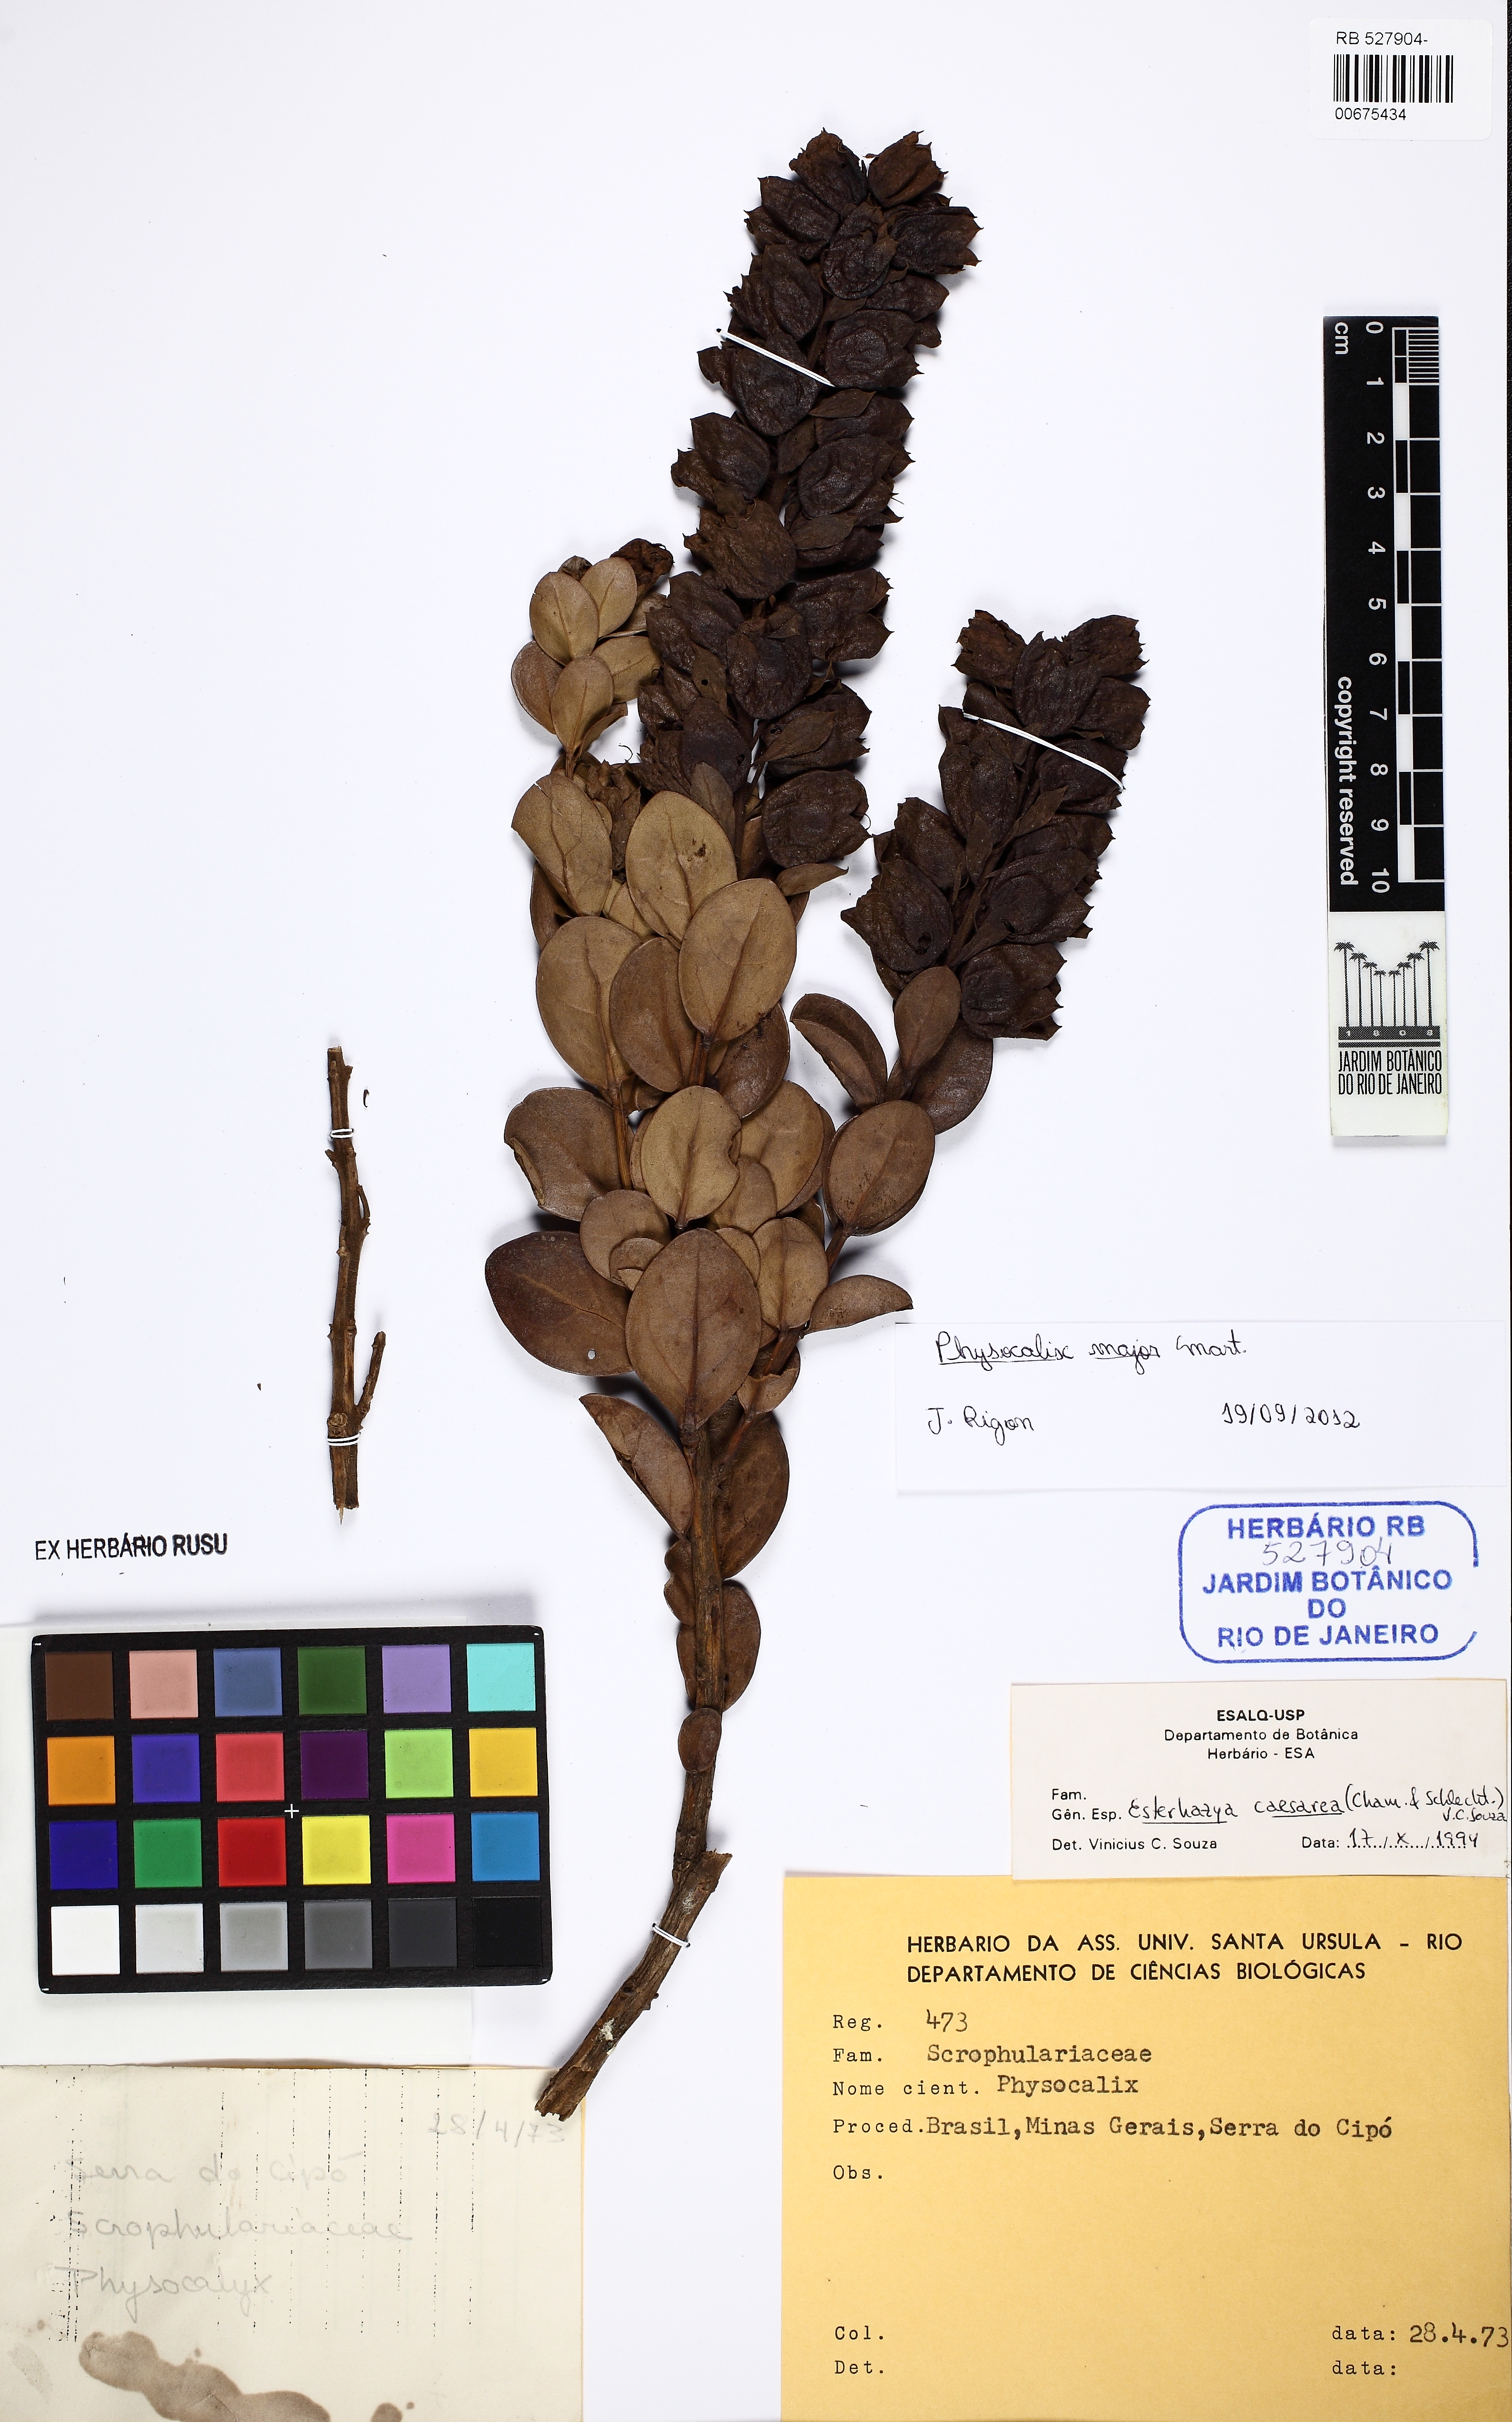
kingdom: Plantae
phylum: Tracheophyta
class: Magnoliopsida
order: Lamiales
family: Orobanchaceae
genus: Physocalyx
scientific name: Physocalyx major
